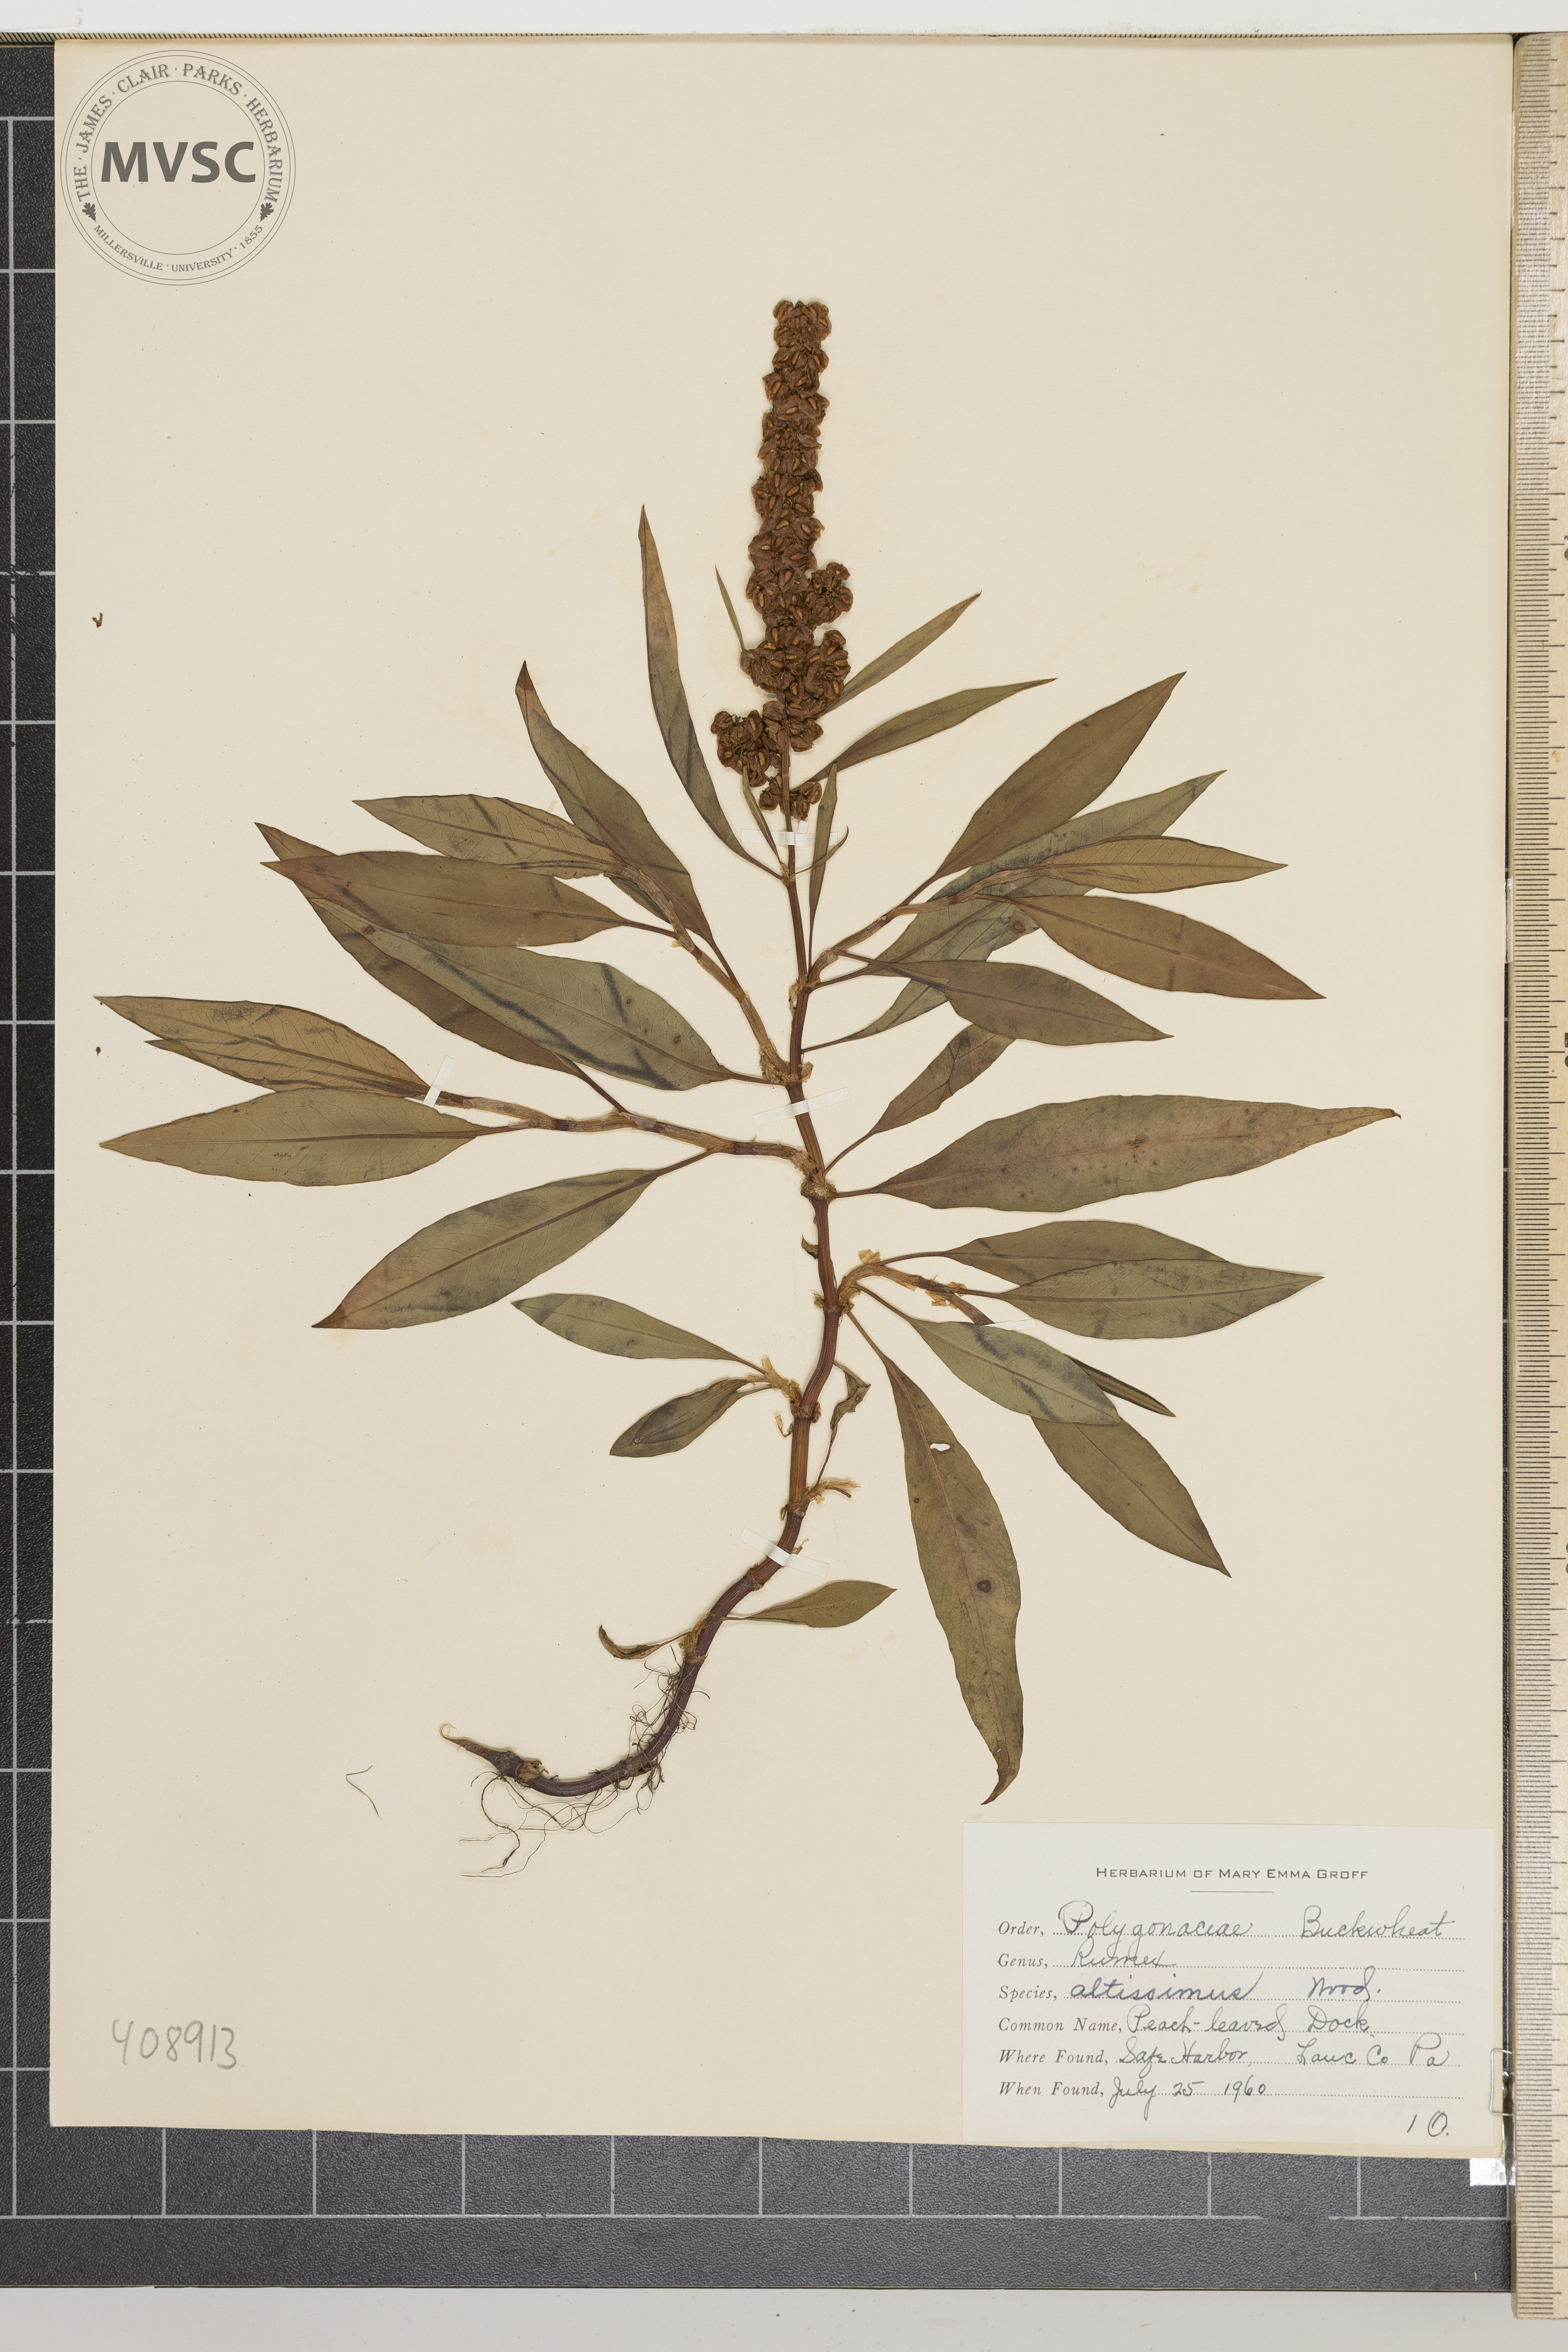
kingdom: Plantae
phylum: Tracheophyta
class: Magnoliopsida
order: Caryophyllales
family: Polygonaceae
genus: Rumex
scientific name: Rumex altissimus
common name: Peach-leaved Dock
